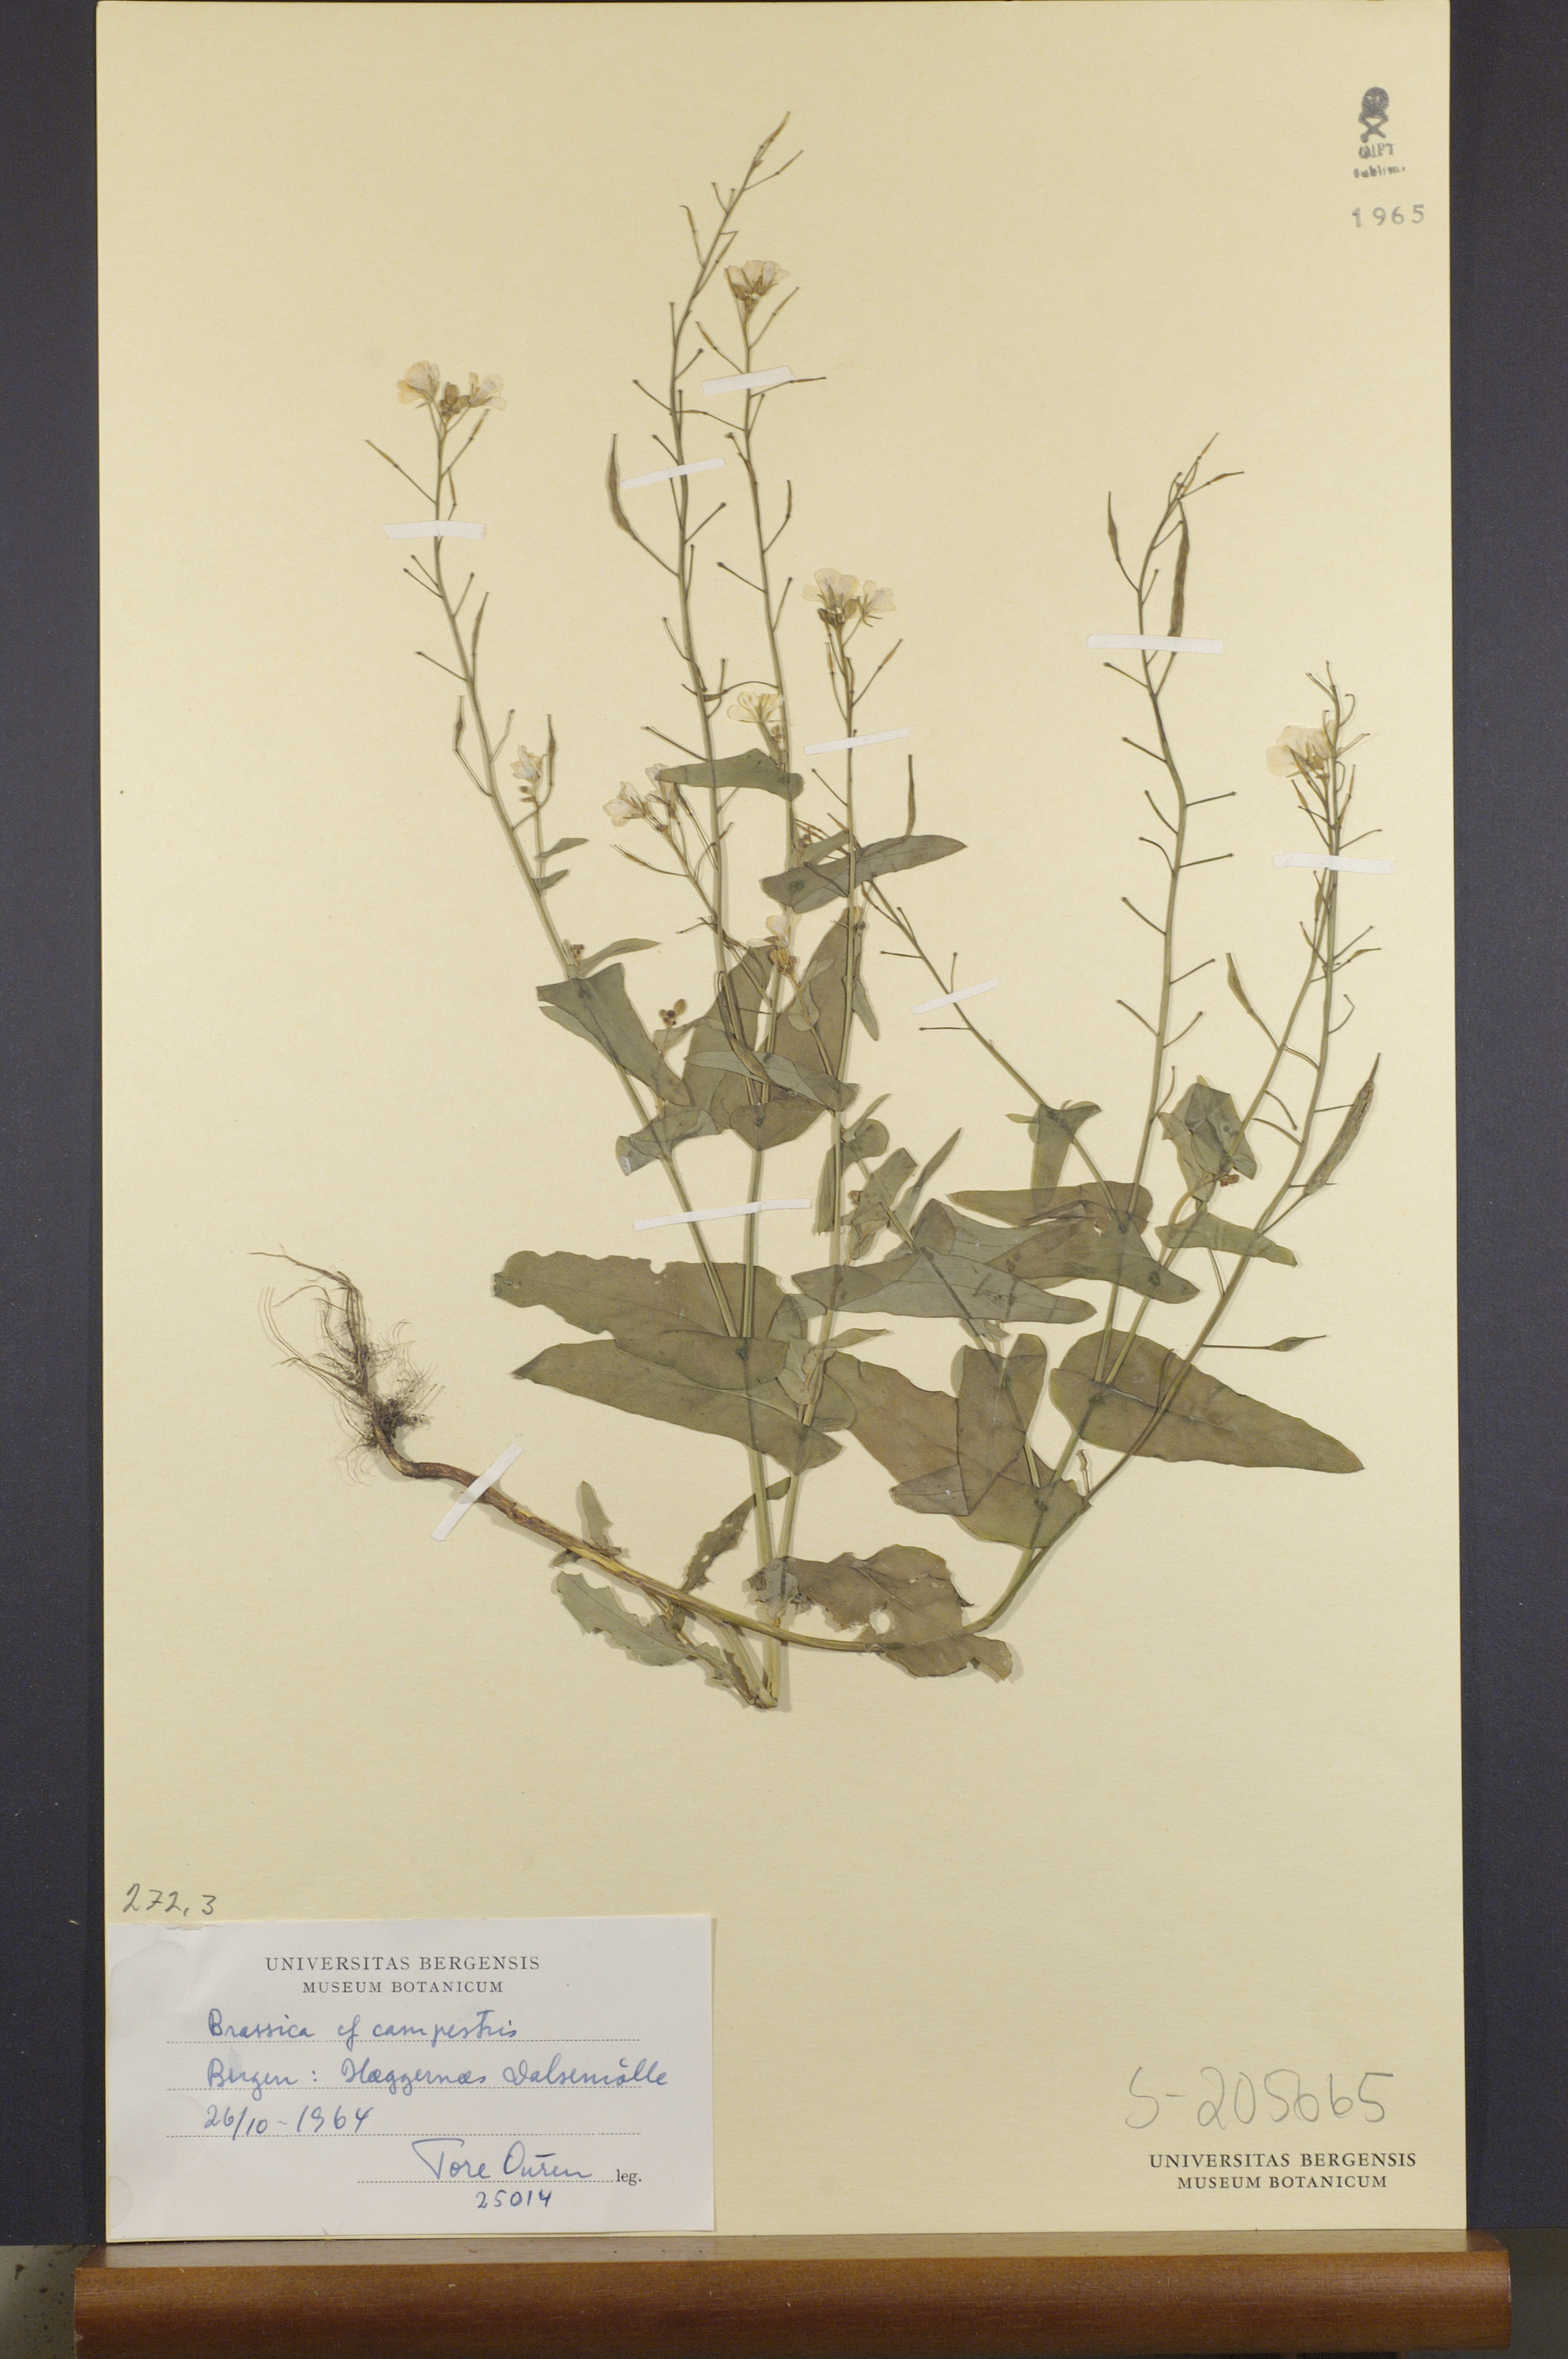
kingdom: Plantae
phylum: Tracheophyta
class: Magnoliopsida
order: Brassicales
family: Brassicaceae
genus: Brassica
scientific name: Brassica rapa
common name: Field mustard
